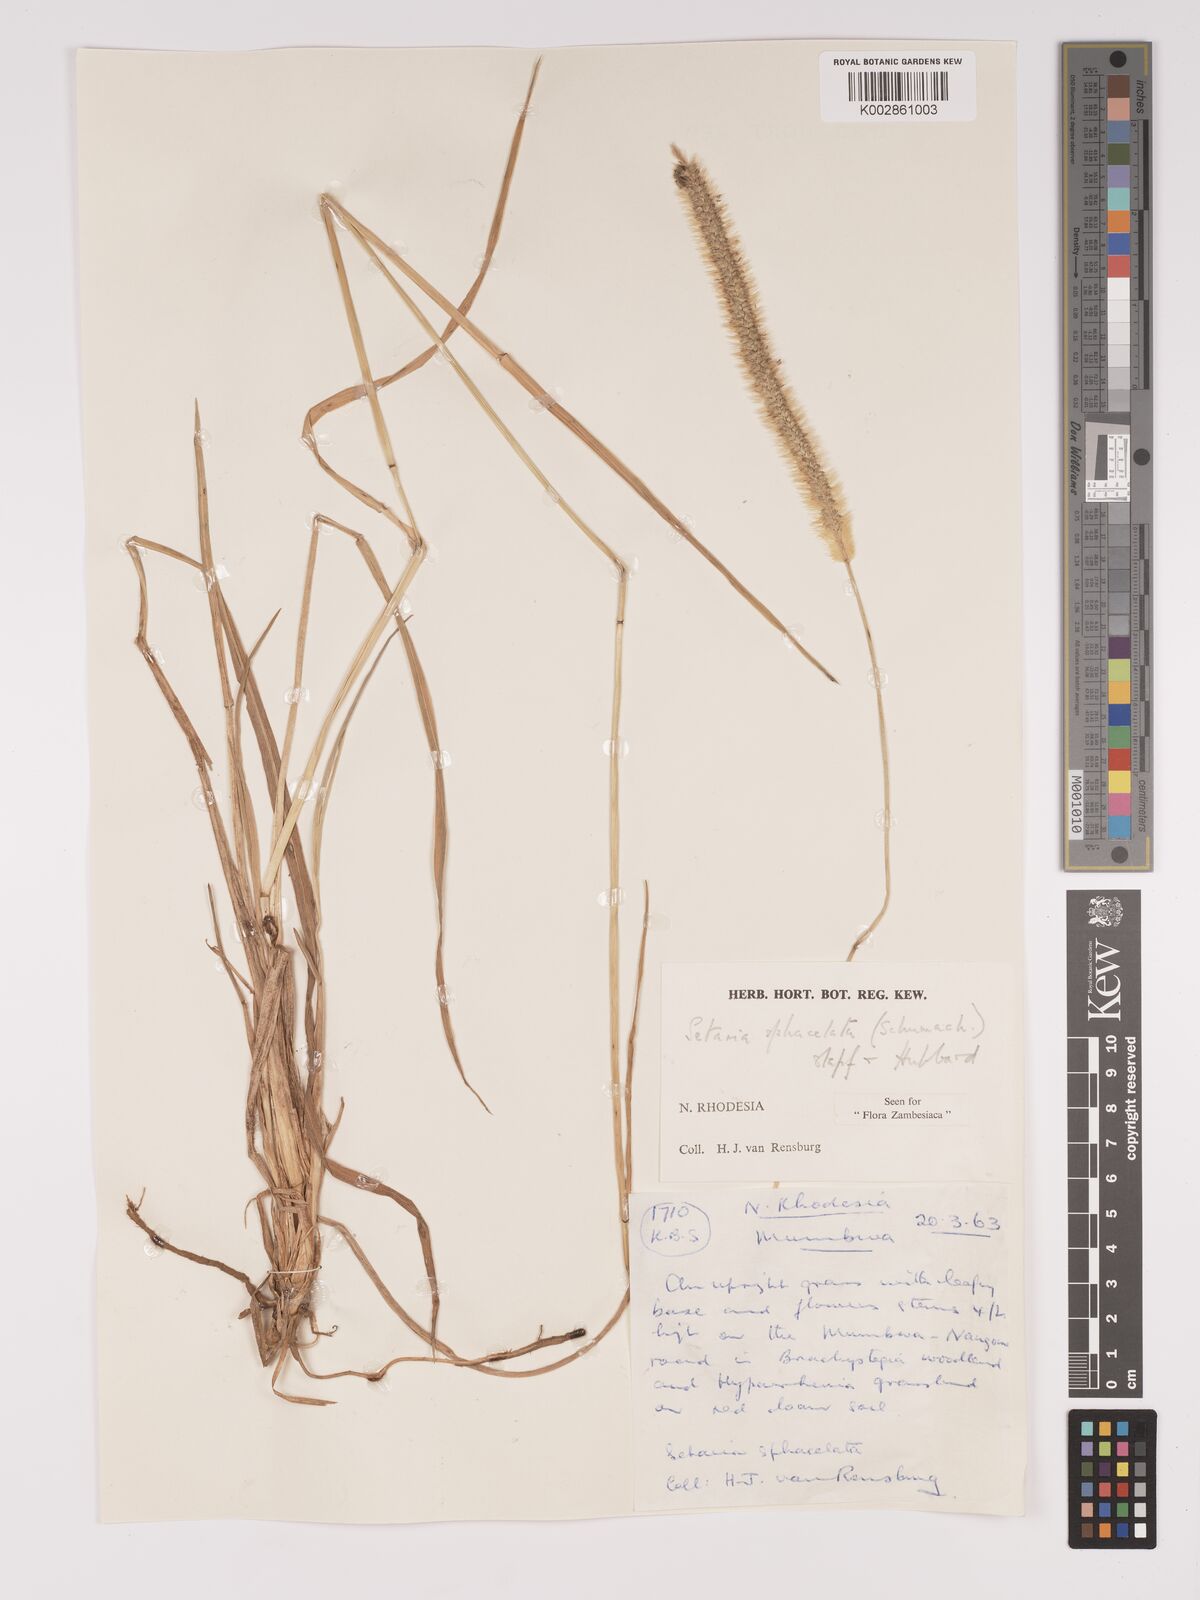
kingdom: Plantae
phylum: Tracheophyta
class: Liliopsida
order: Poales
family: Poaceae
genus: Setaria
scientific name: Setaria sphacelata
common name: African bristlegrass
